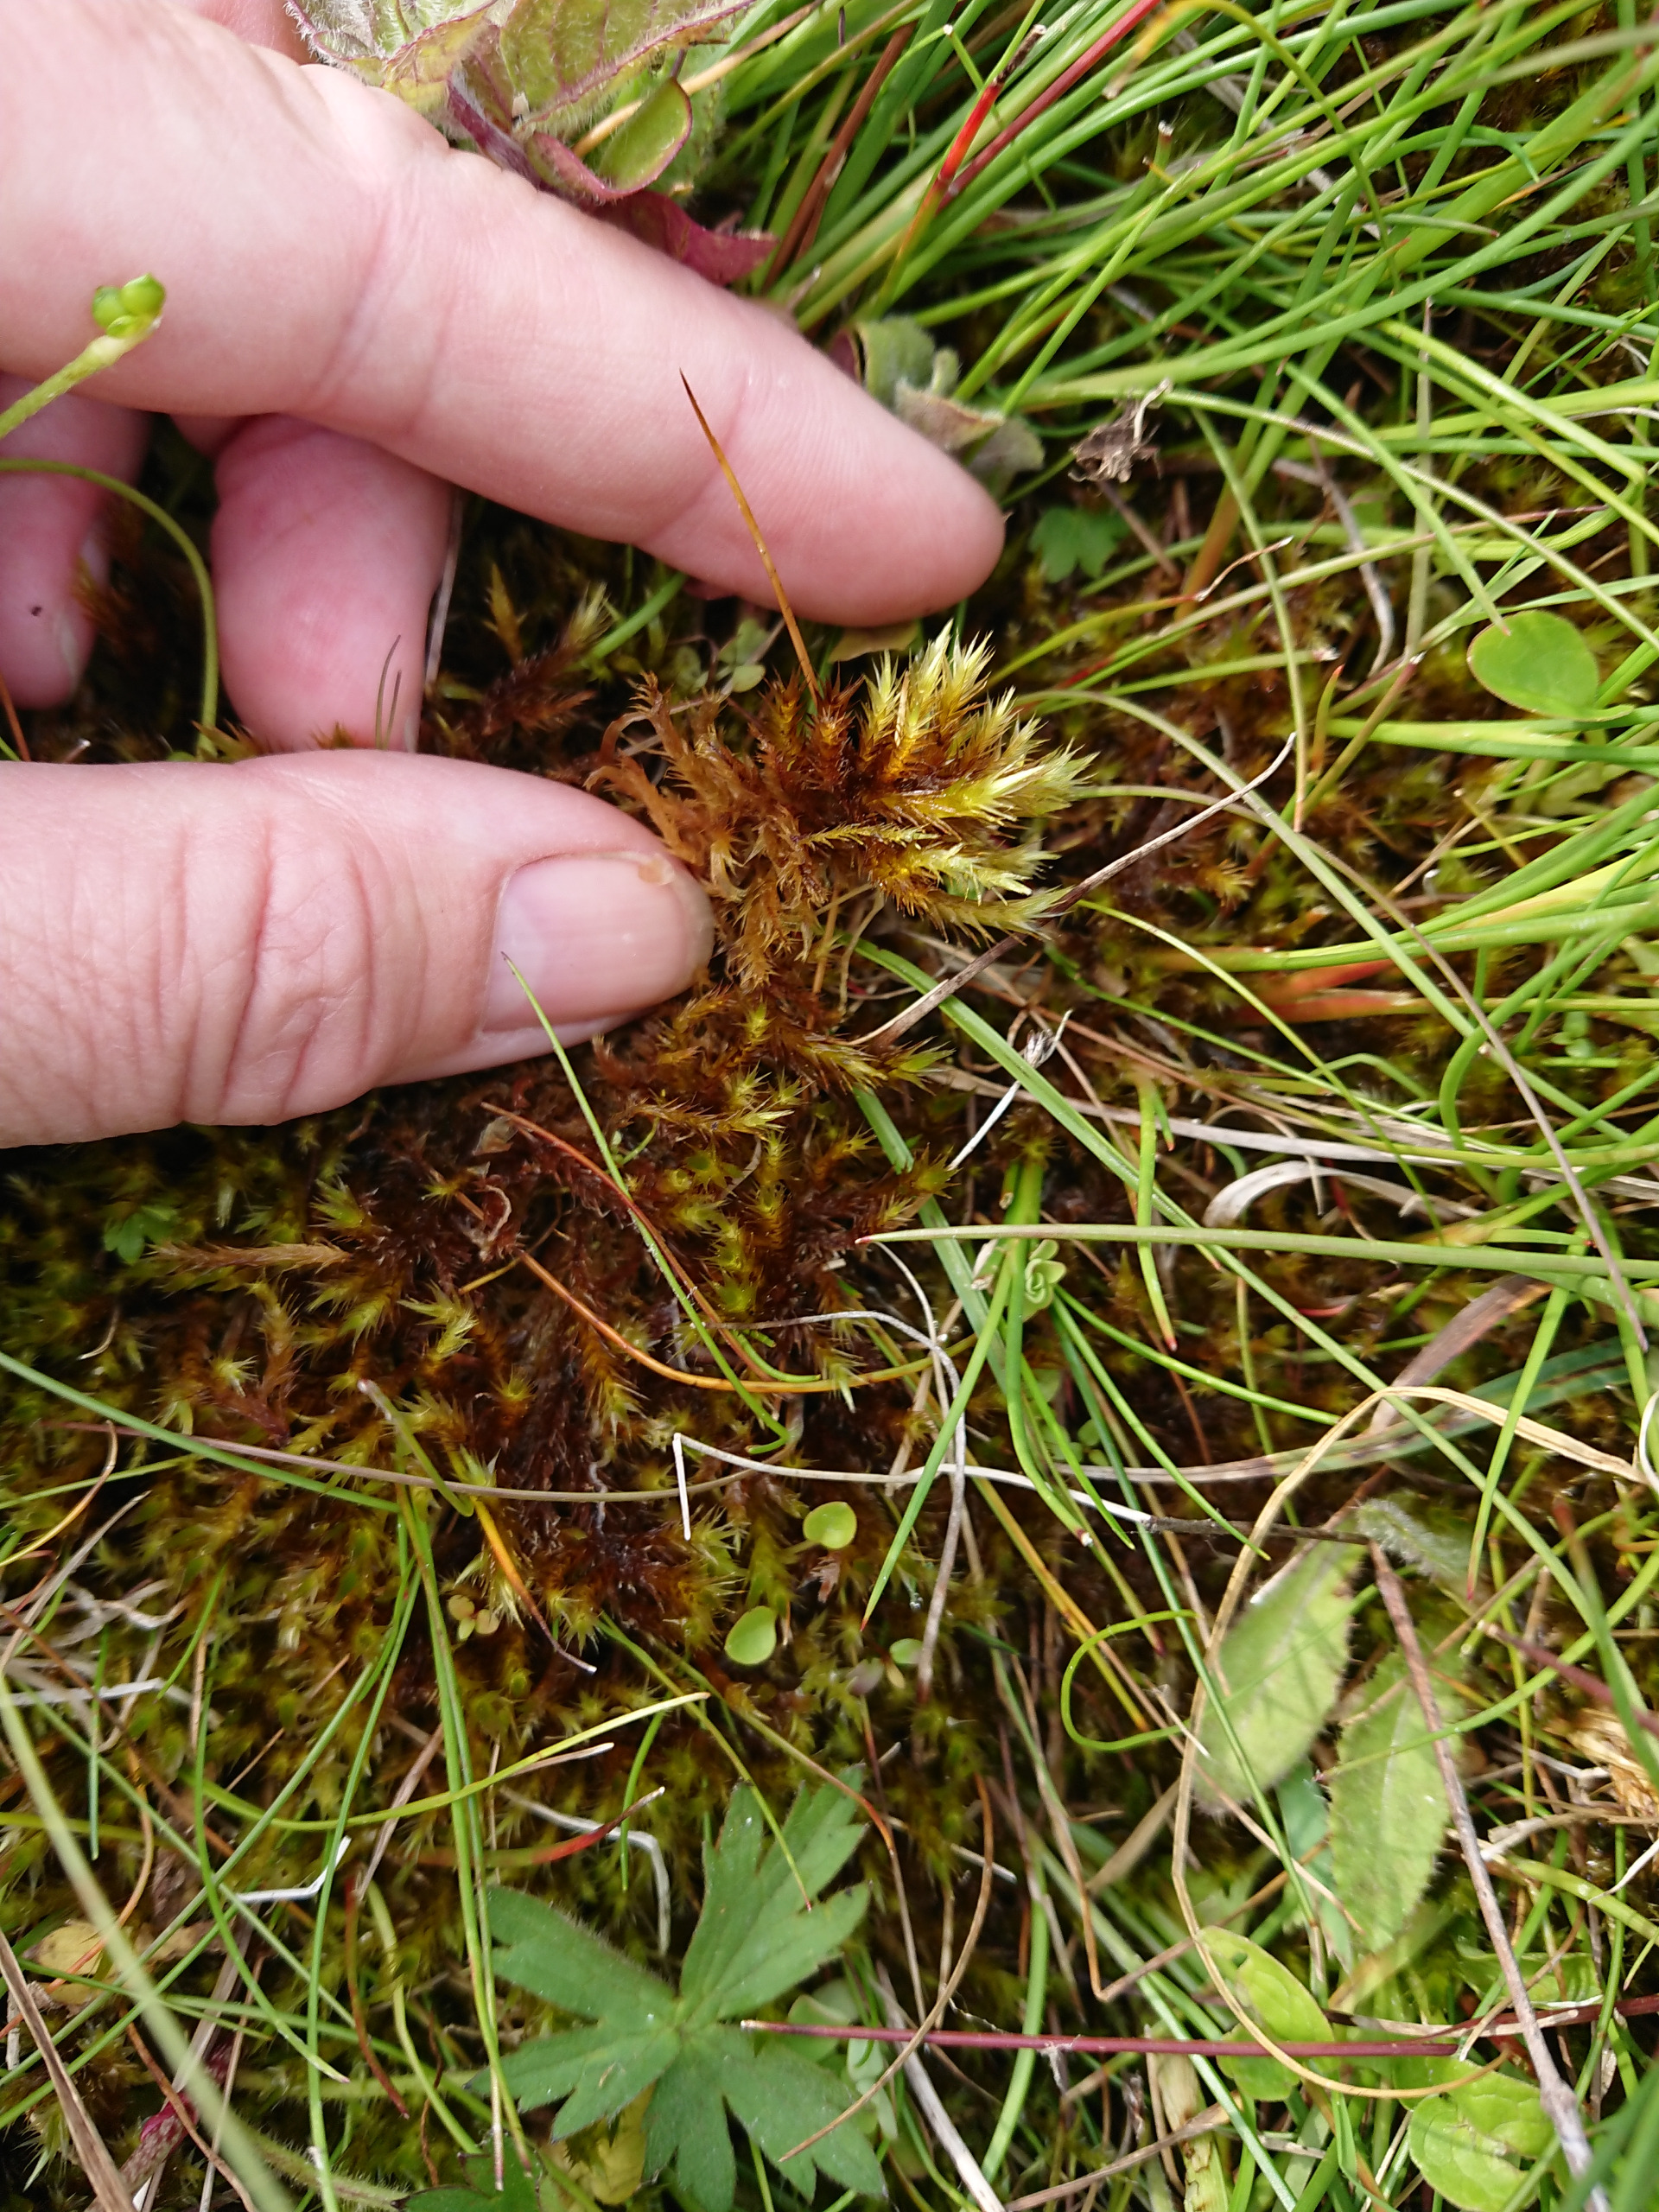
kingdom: Plantae
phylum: Bryophyta
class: Bryopsida
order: Hypnales
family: Amblystegiaceae
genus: Tomentypnum
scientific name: Tomentypnum nitens
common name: Glinsende kærmos
